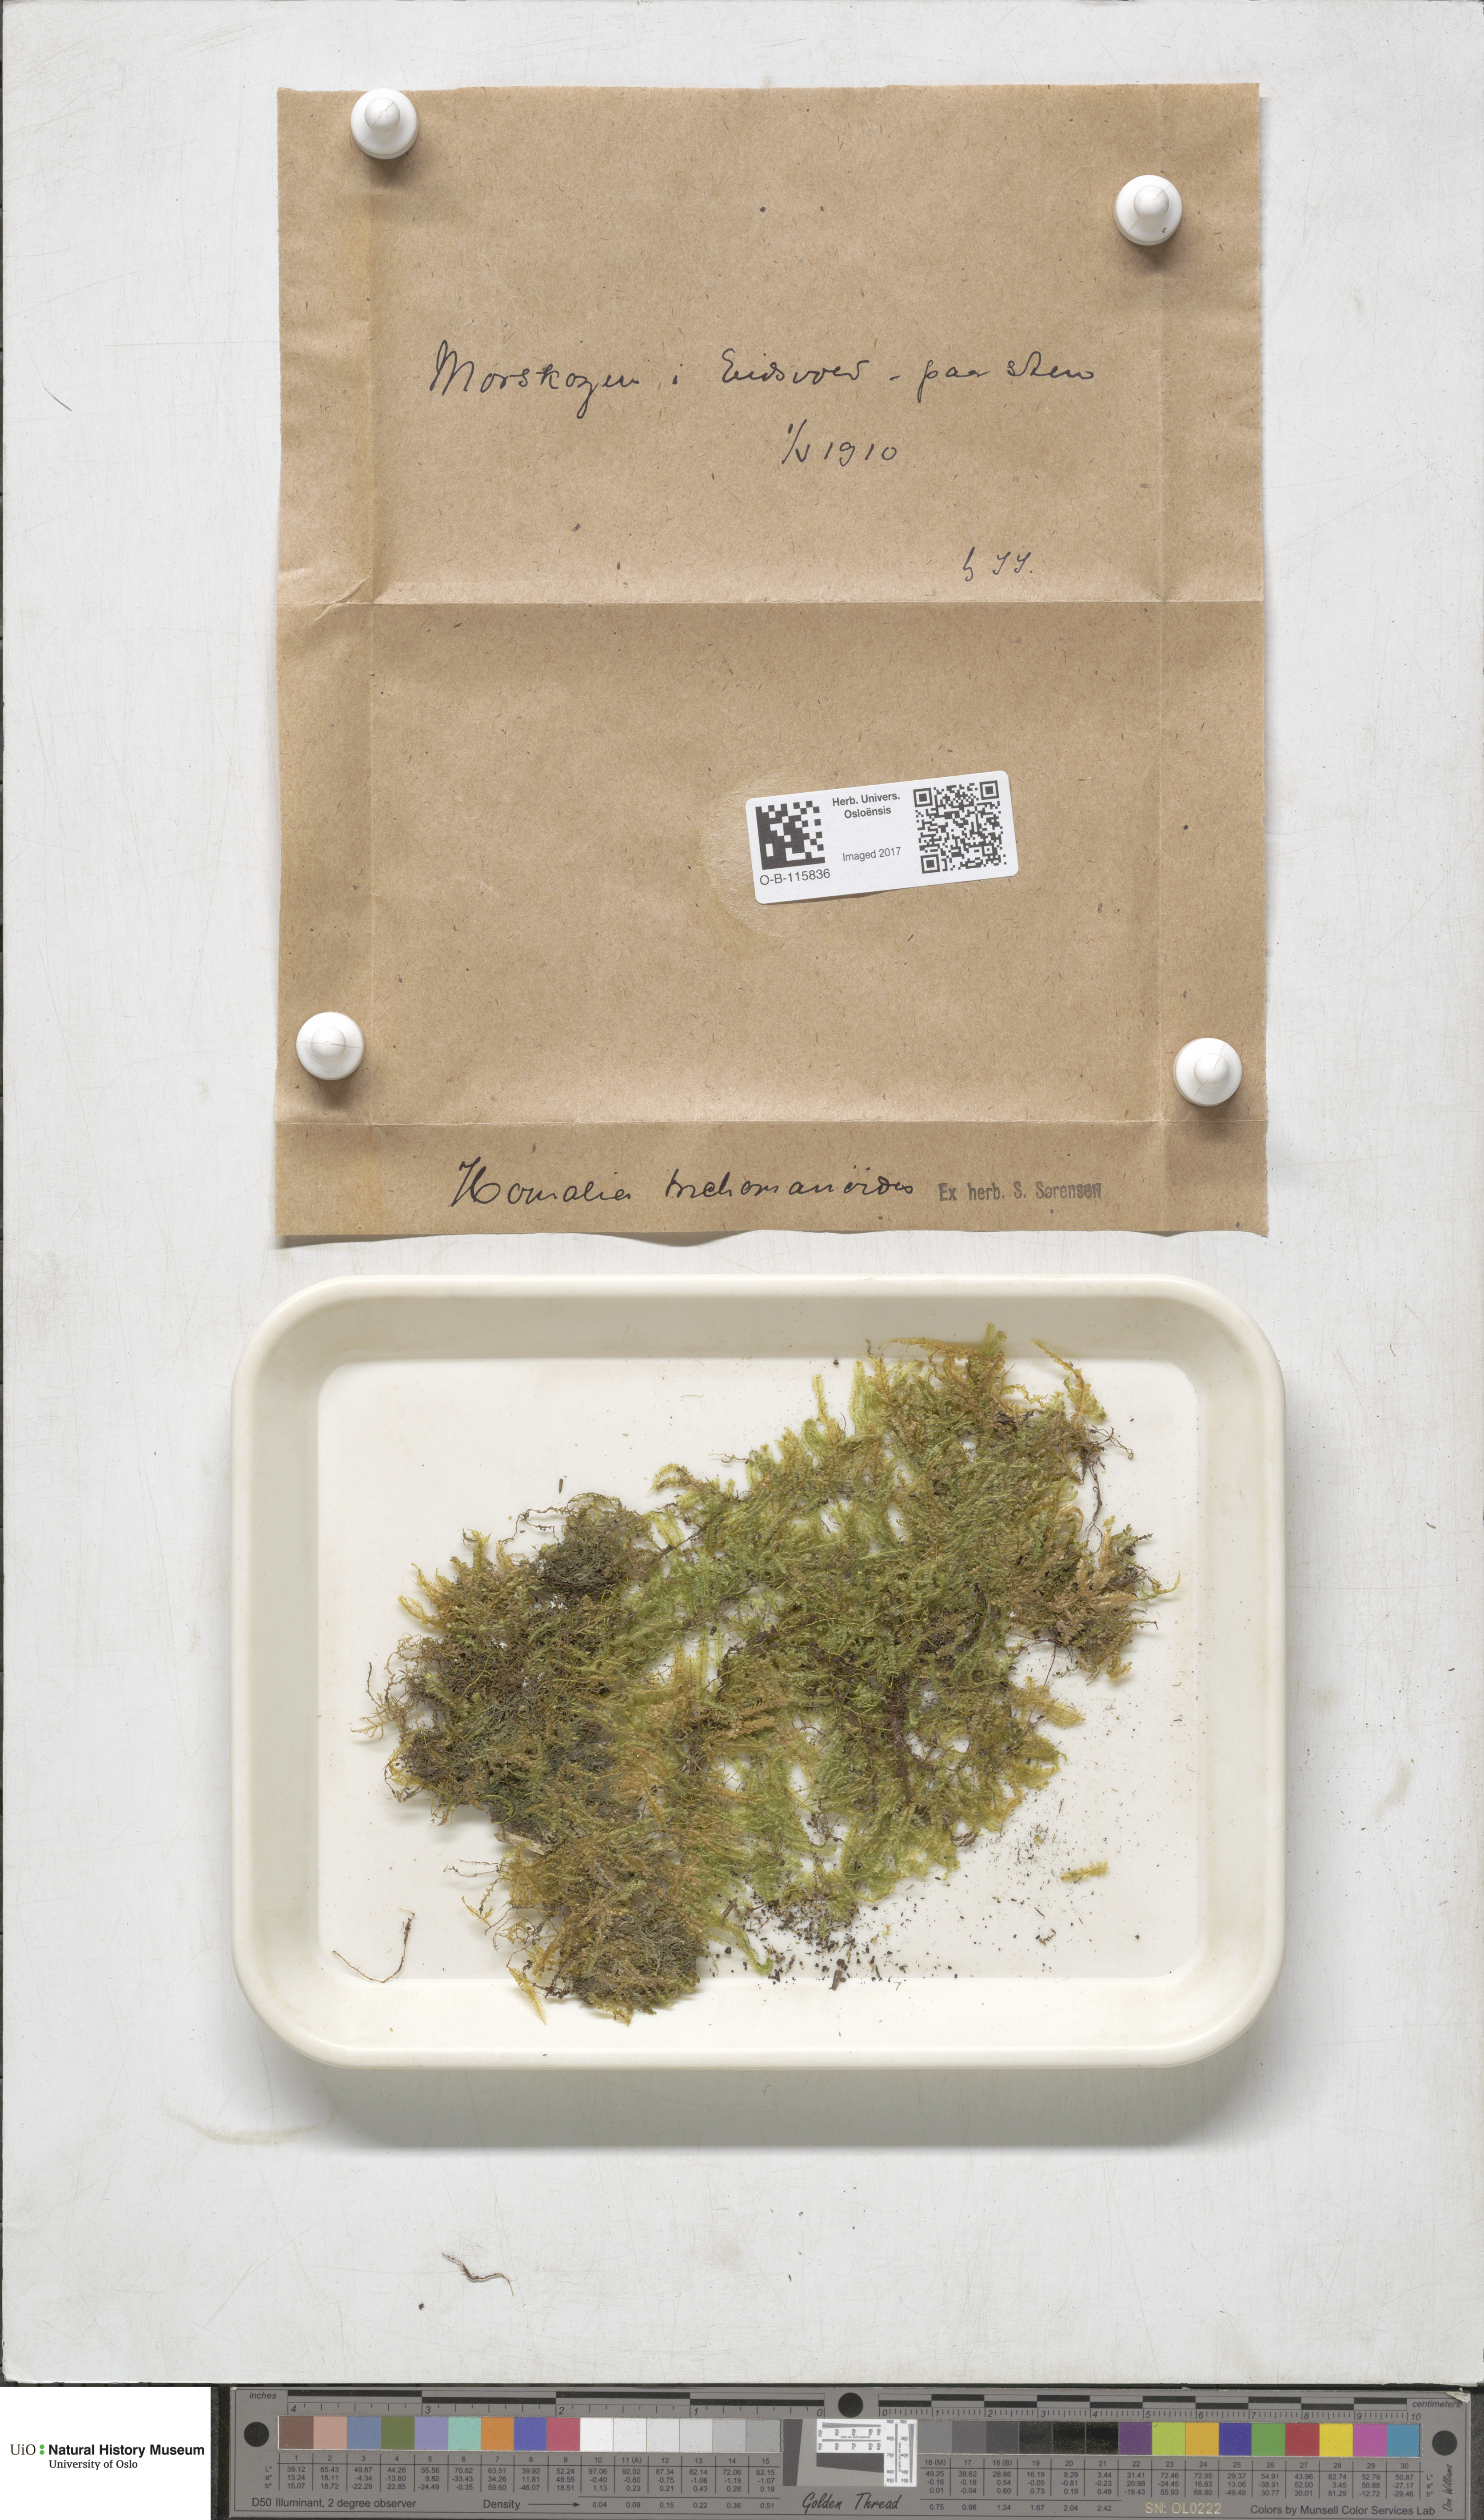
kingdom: Plantae
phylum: Bryophyta
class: Bryopsida
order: Hypnales
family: Neckeraceae
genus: Homalia
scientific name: Homalia trichomanoides
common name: Lime homalia moss
